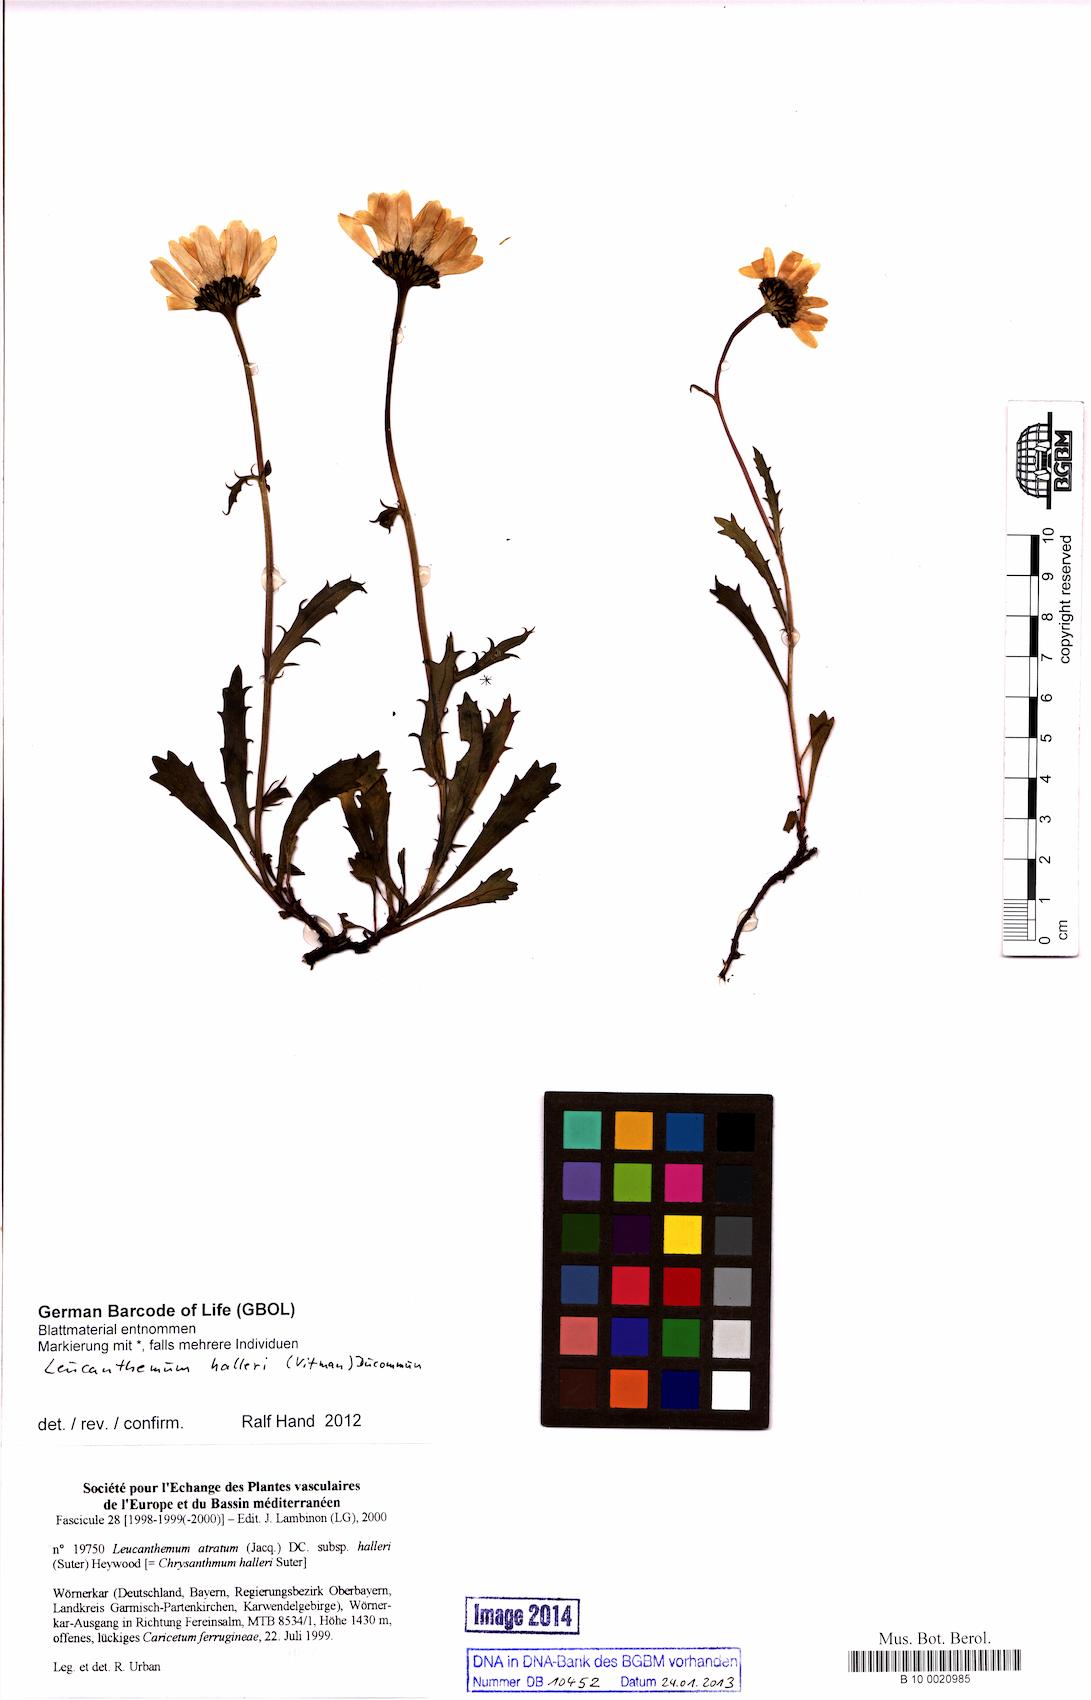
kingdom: Plantae
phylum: Tracheophyta
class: Magnoliopsida
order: Asterales
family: Asteraceae
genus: Leucanthemum
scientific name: Leucanthemum halleri
